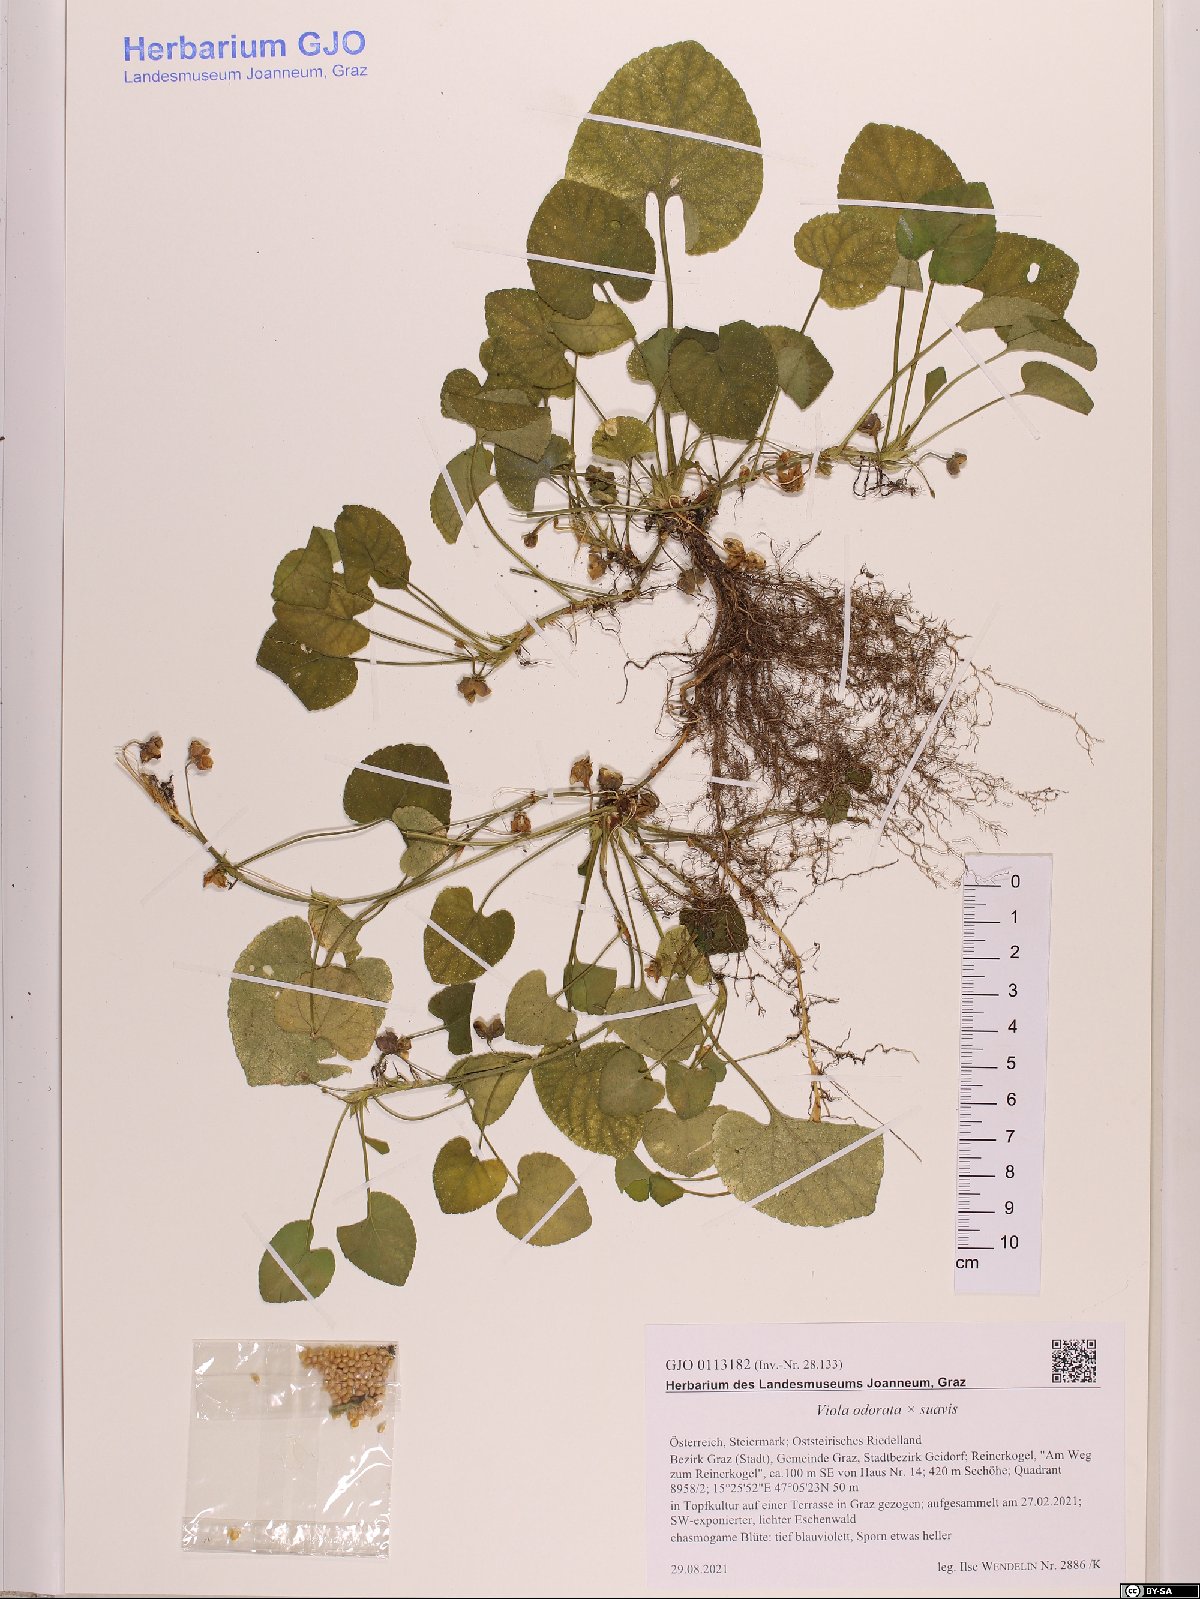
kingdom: Plantae
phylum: Tracheophyta
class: Magnoliopsida
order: Malpighiales
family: Violaceae
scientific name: Violaceae
